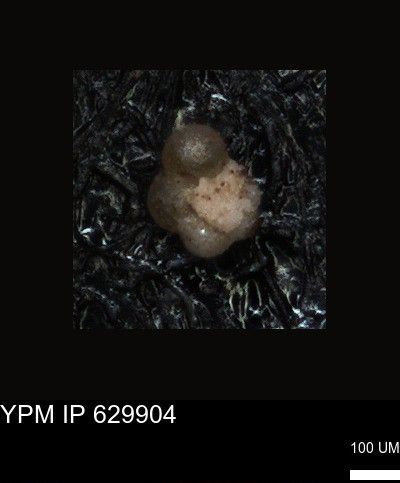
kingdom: Chromista
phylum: Foraminifera
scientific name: Foraminifera
